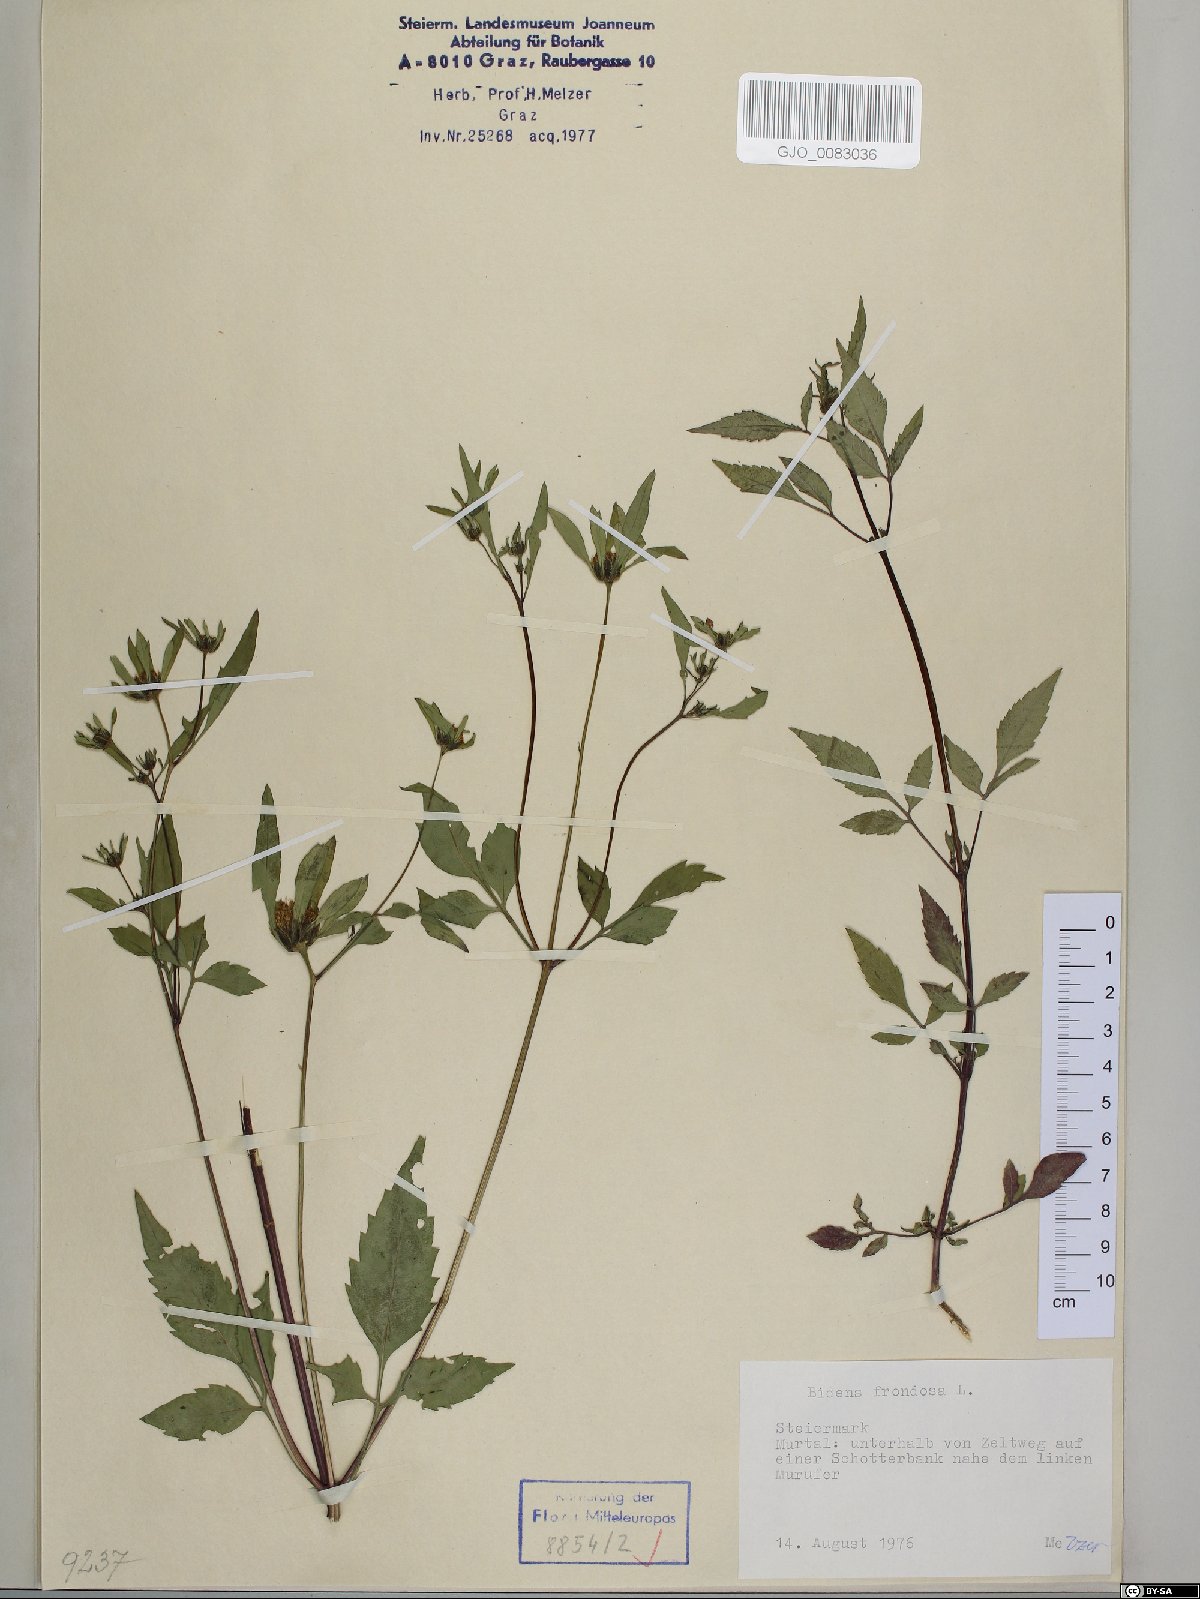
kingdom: Plantae
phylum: Tracheophyta
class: Magnoliopsida
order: Asterales
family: Asteraceae
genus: Bidens
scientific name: Bidens frondosa
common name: Beggarticks
